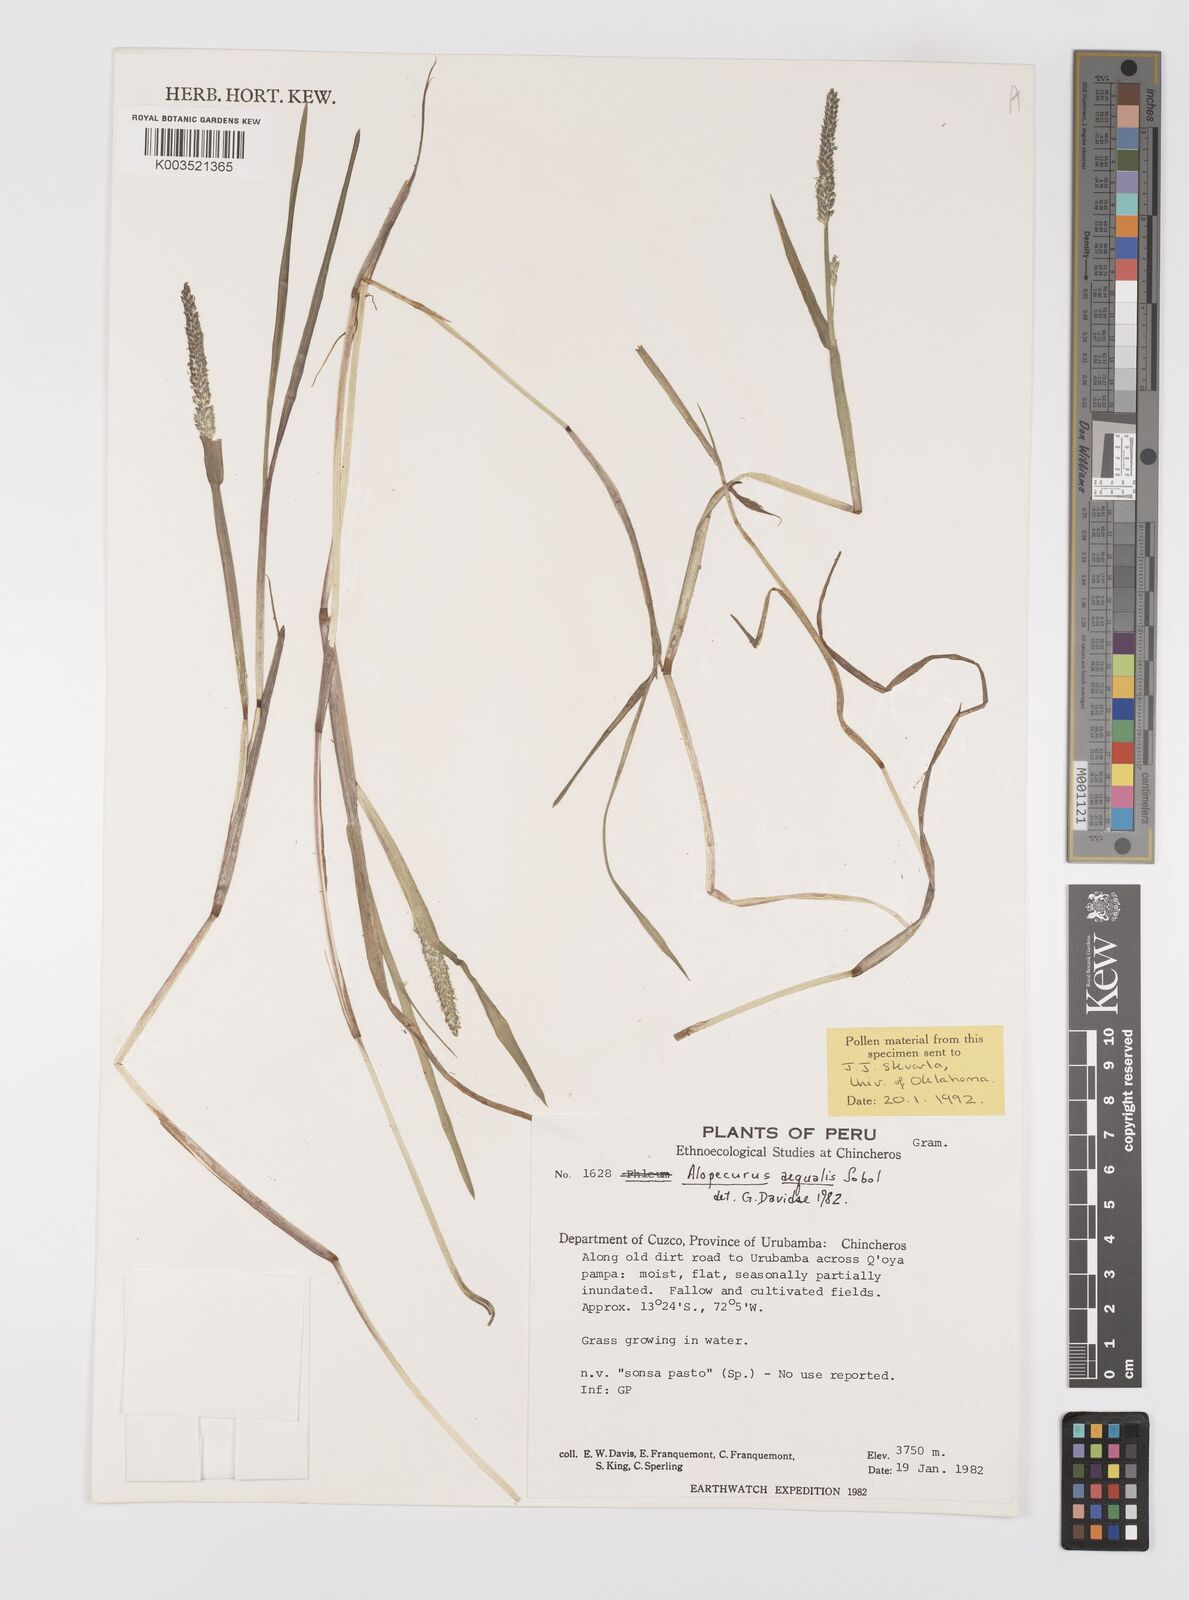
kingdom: Plantae
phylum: Tracheophyta
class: Liliopsida
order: Poales
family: Poaceae
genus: Alopecurus
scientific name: Alopecurus aequalis
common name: Orange foxtail
